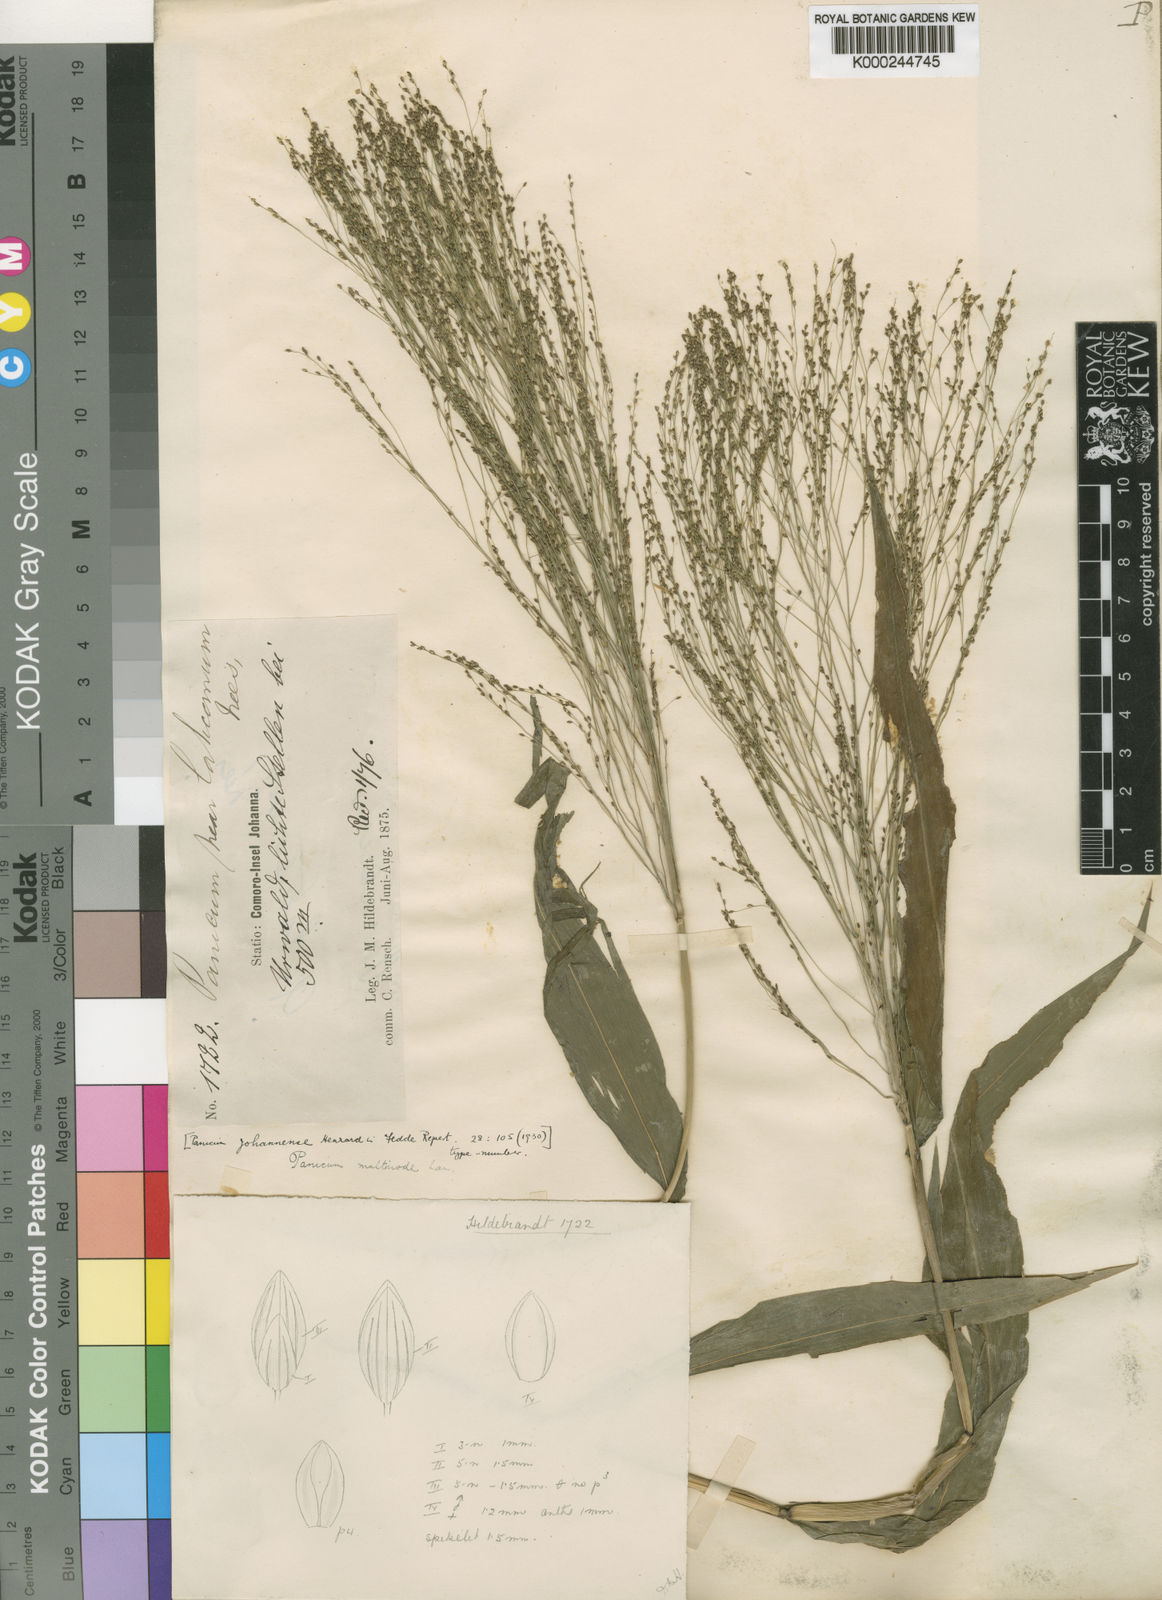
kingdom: Plantae
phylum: Tracheophyta
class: Liliopsida
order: Poales
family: Poaceae
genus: Cyrtococcum
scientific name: Cyrtococcum multinode
